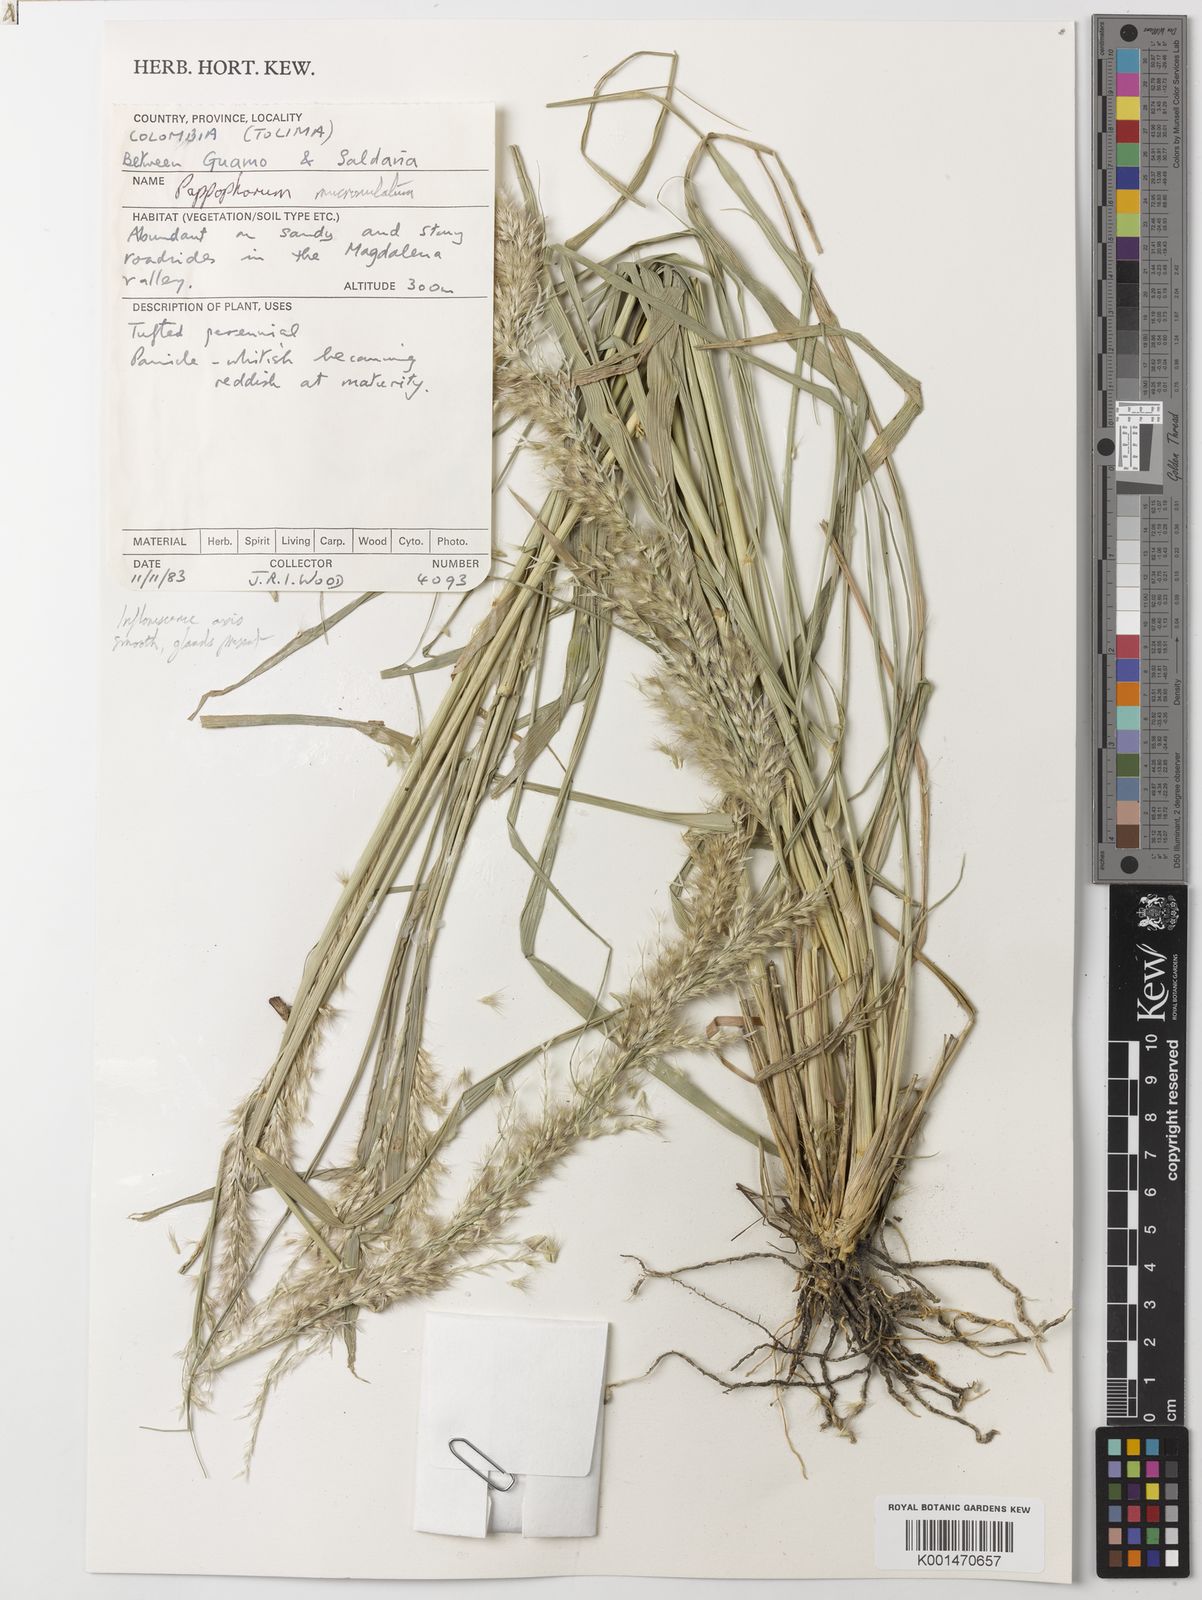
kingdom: Plantae
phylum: Tracheophyta
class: Liliopsida
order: Poales
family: Poaceae
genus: Pappophorum
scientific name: Pappophorum mucronulatum
